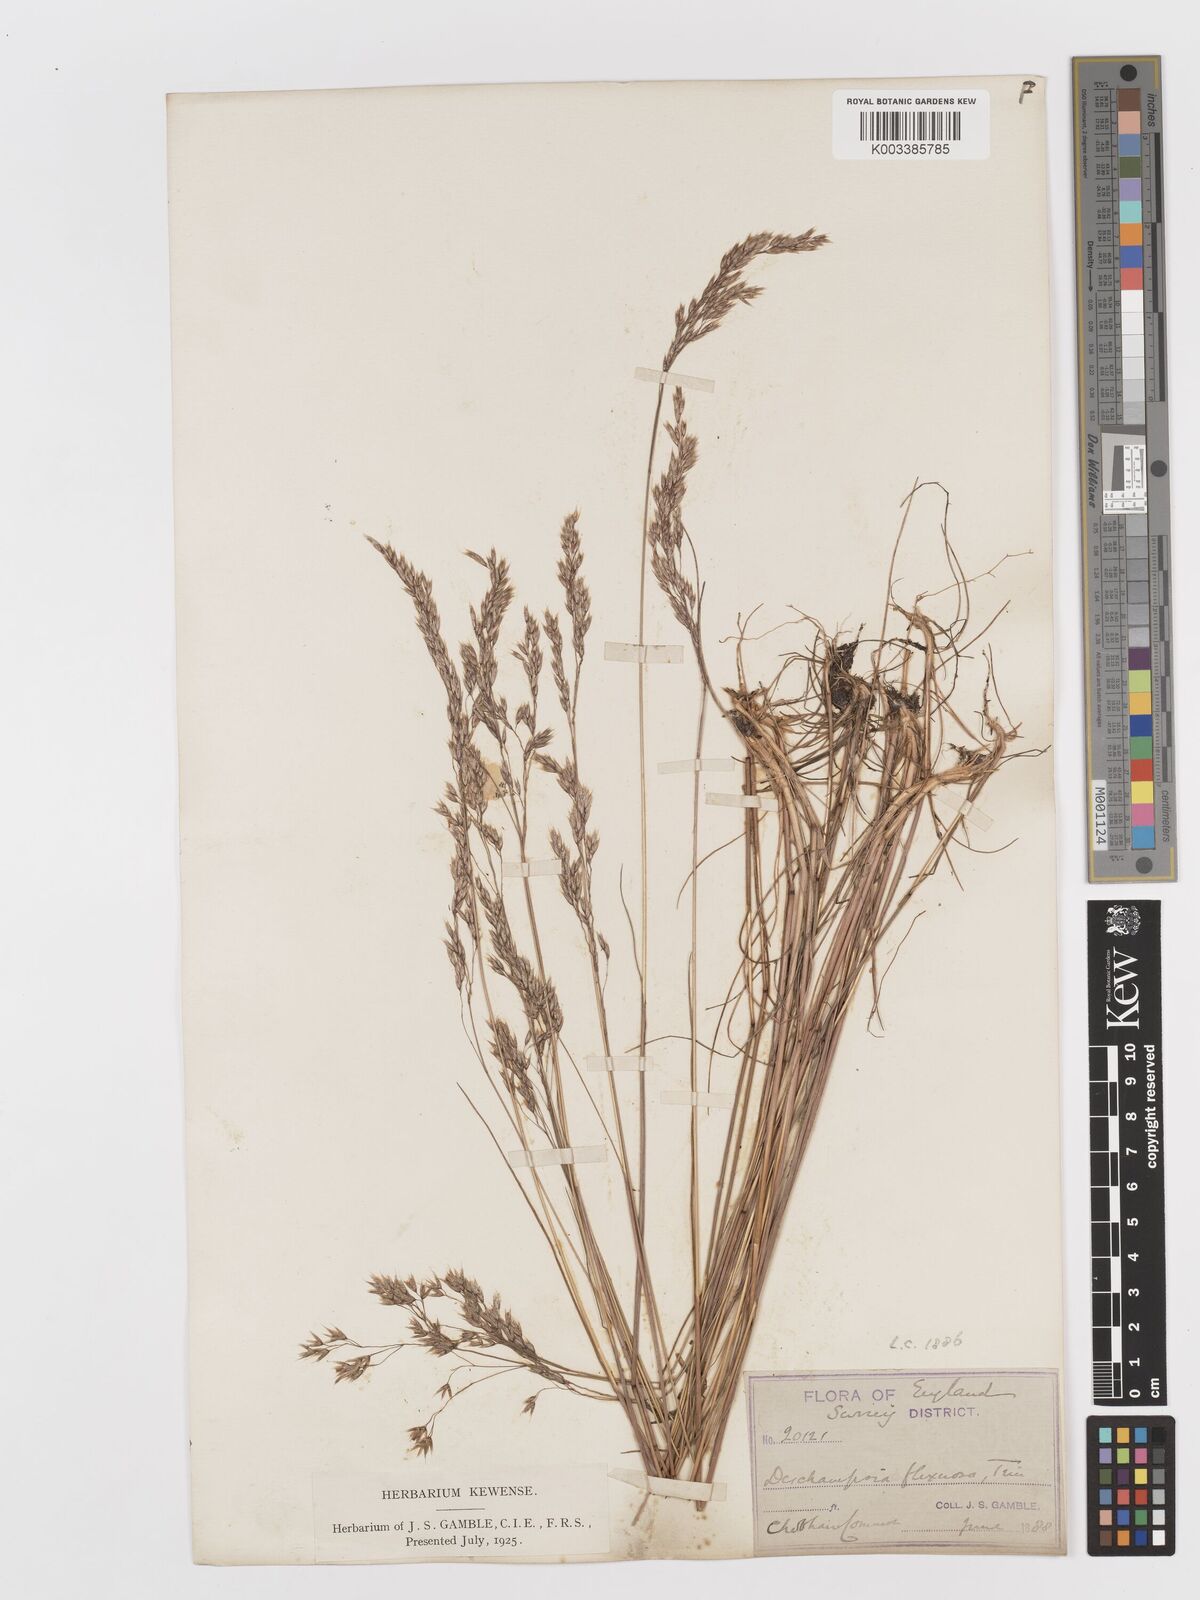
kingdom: Plantae
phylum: Tracheophyta
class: Liliopsida
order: Poales
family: Poaceae
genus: Avenella
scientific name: Avenella flexuosa
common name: Wavy hairgrass
